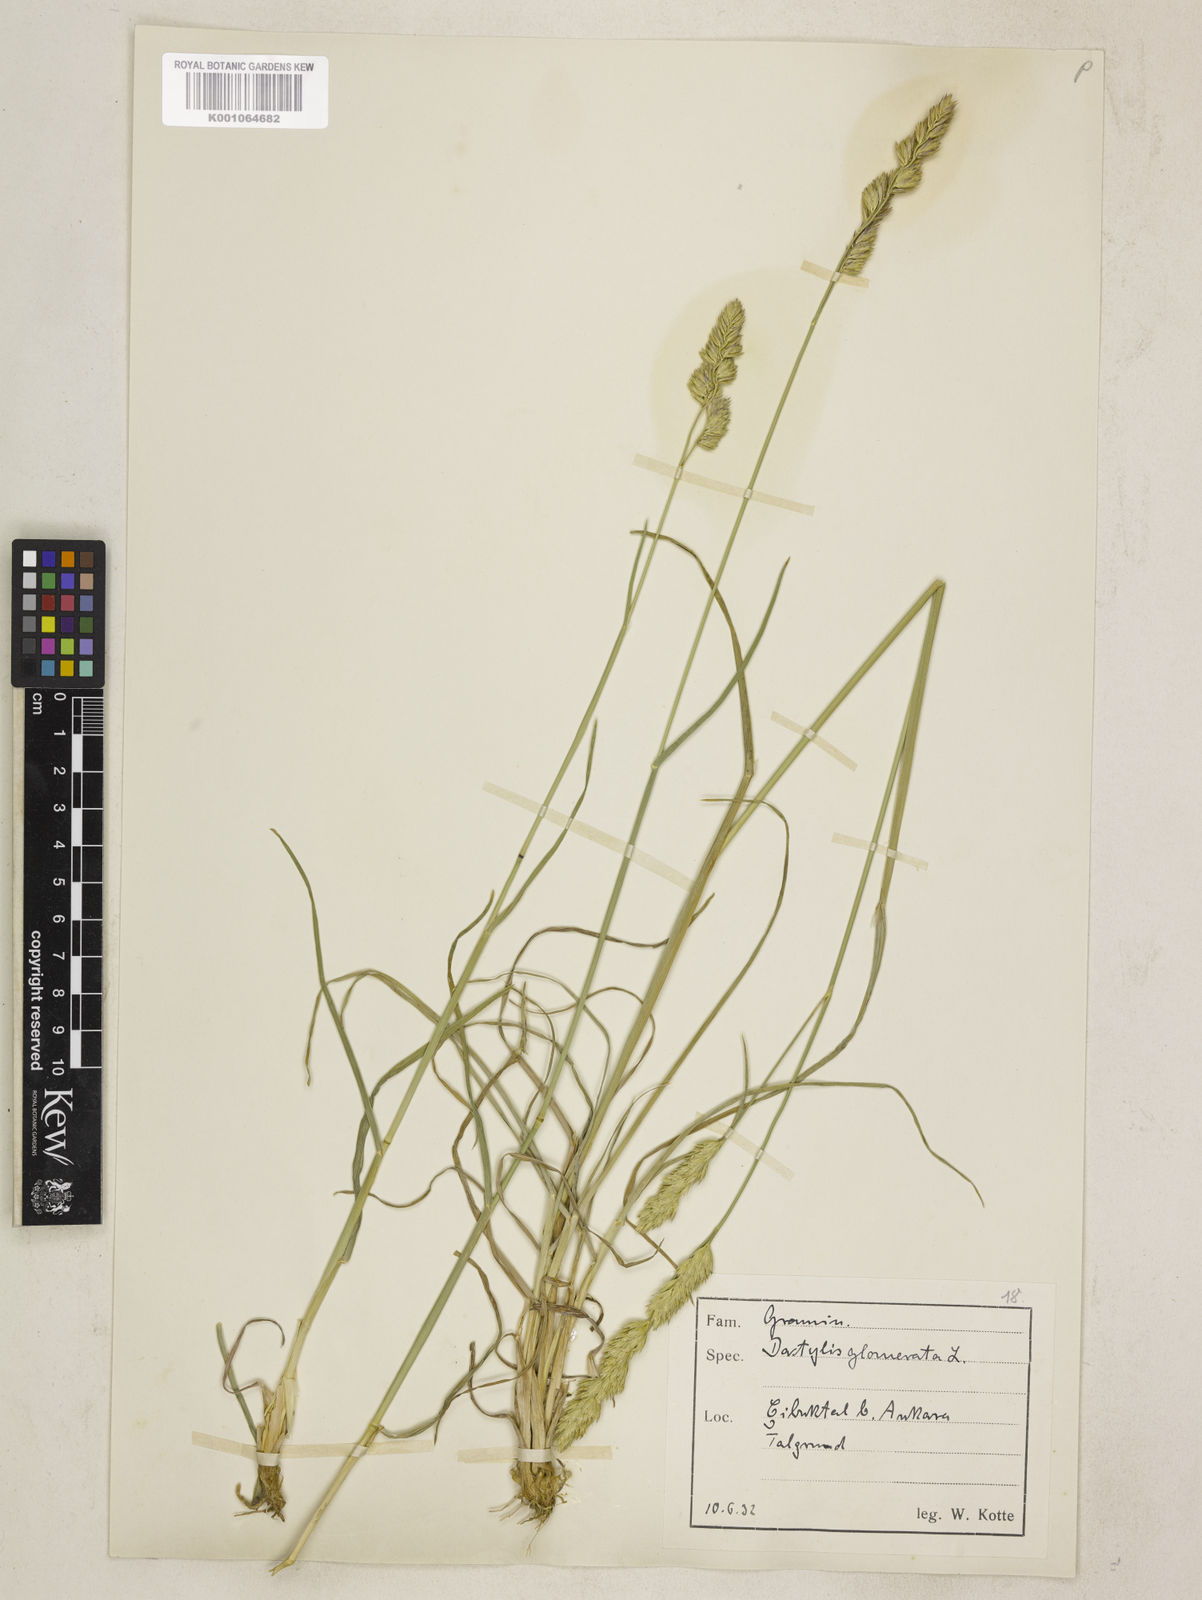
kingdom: Plantae
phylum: Tracheophyta
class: Liliopsida
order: Poales
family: Poaceae
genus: Dactylis
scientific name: Dactylis glomerata
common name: Orchardgrass
